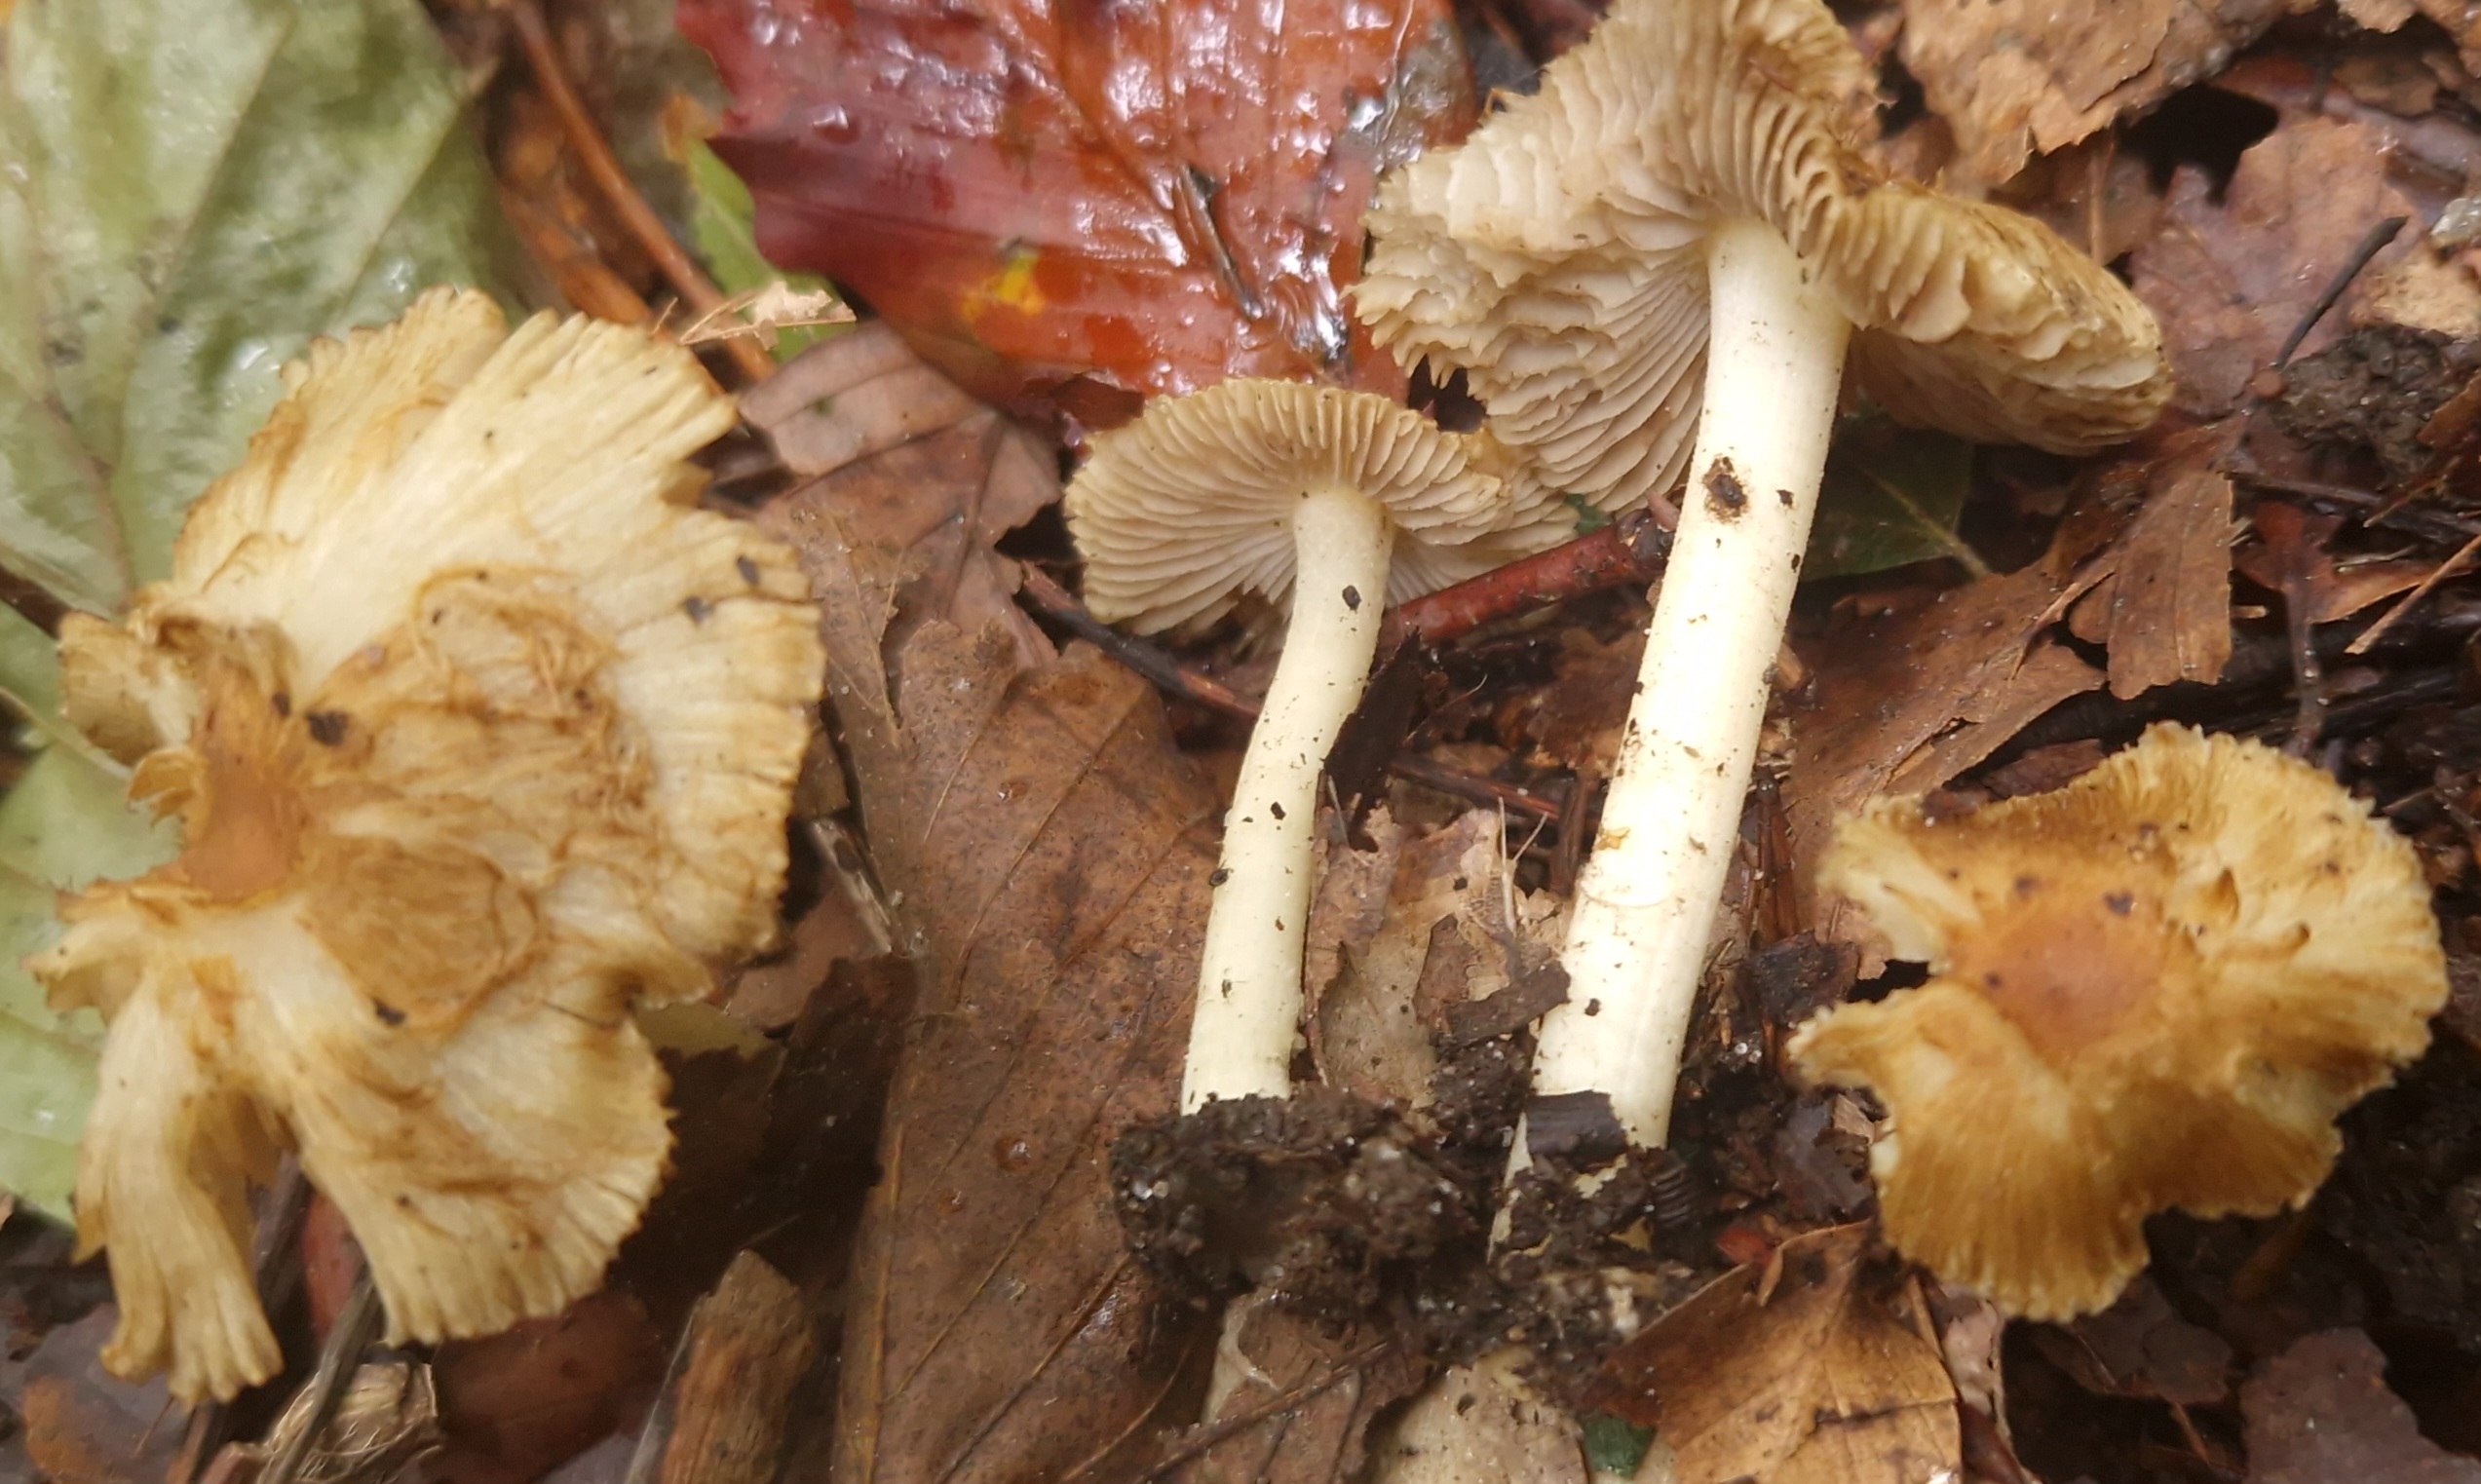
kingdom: Fungi
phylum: Basidiomycota
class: Agaricomycetes
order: Agaricales
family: Inocybaceae
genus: Inocybe
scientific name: Inocybe vaurasii
